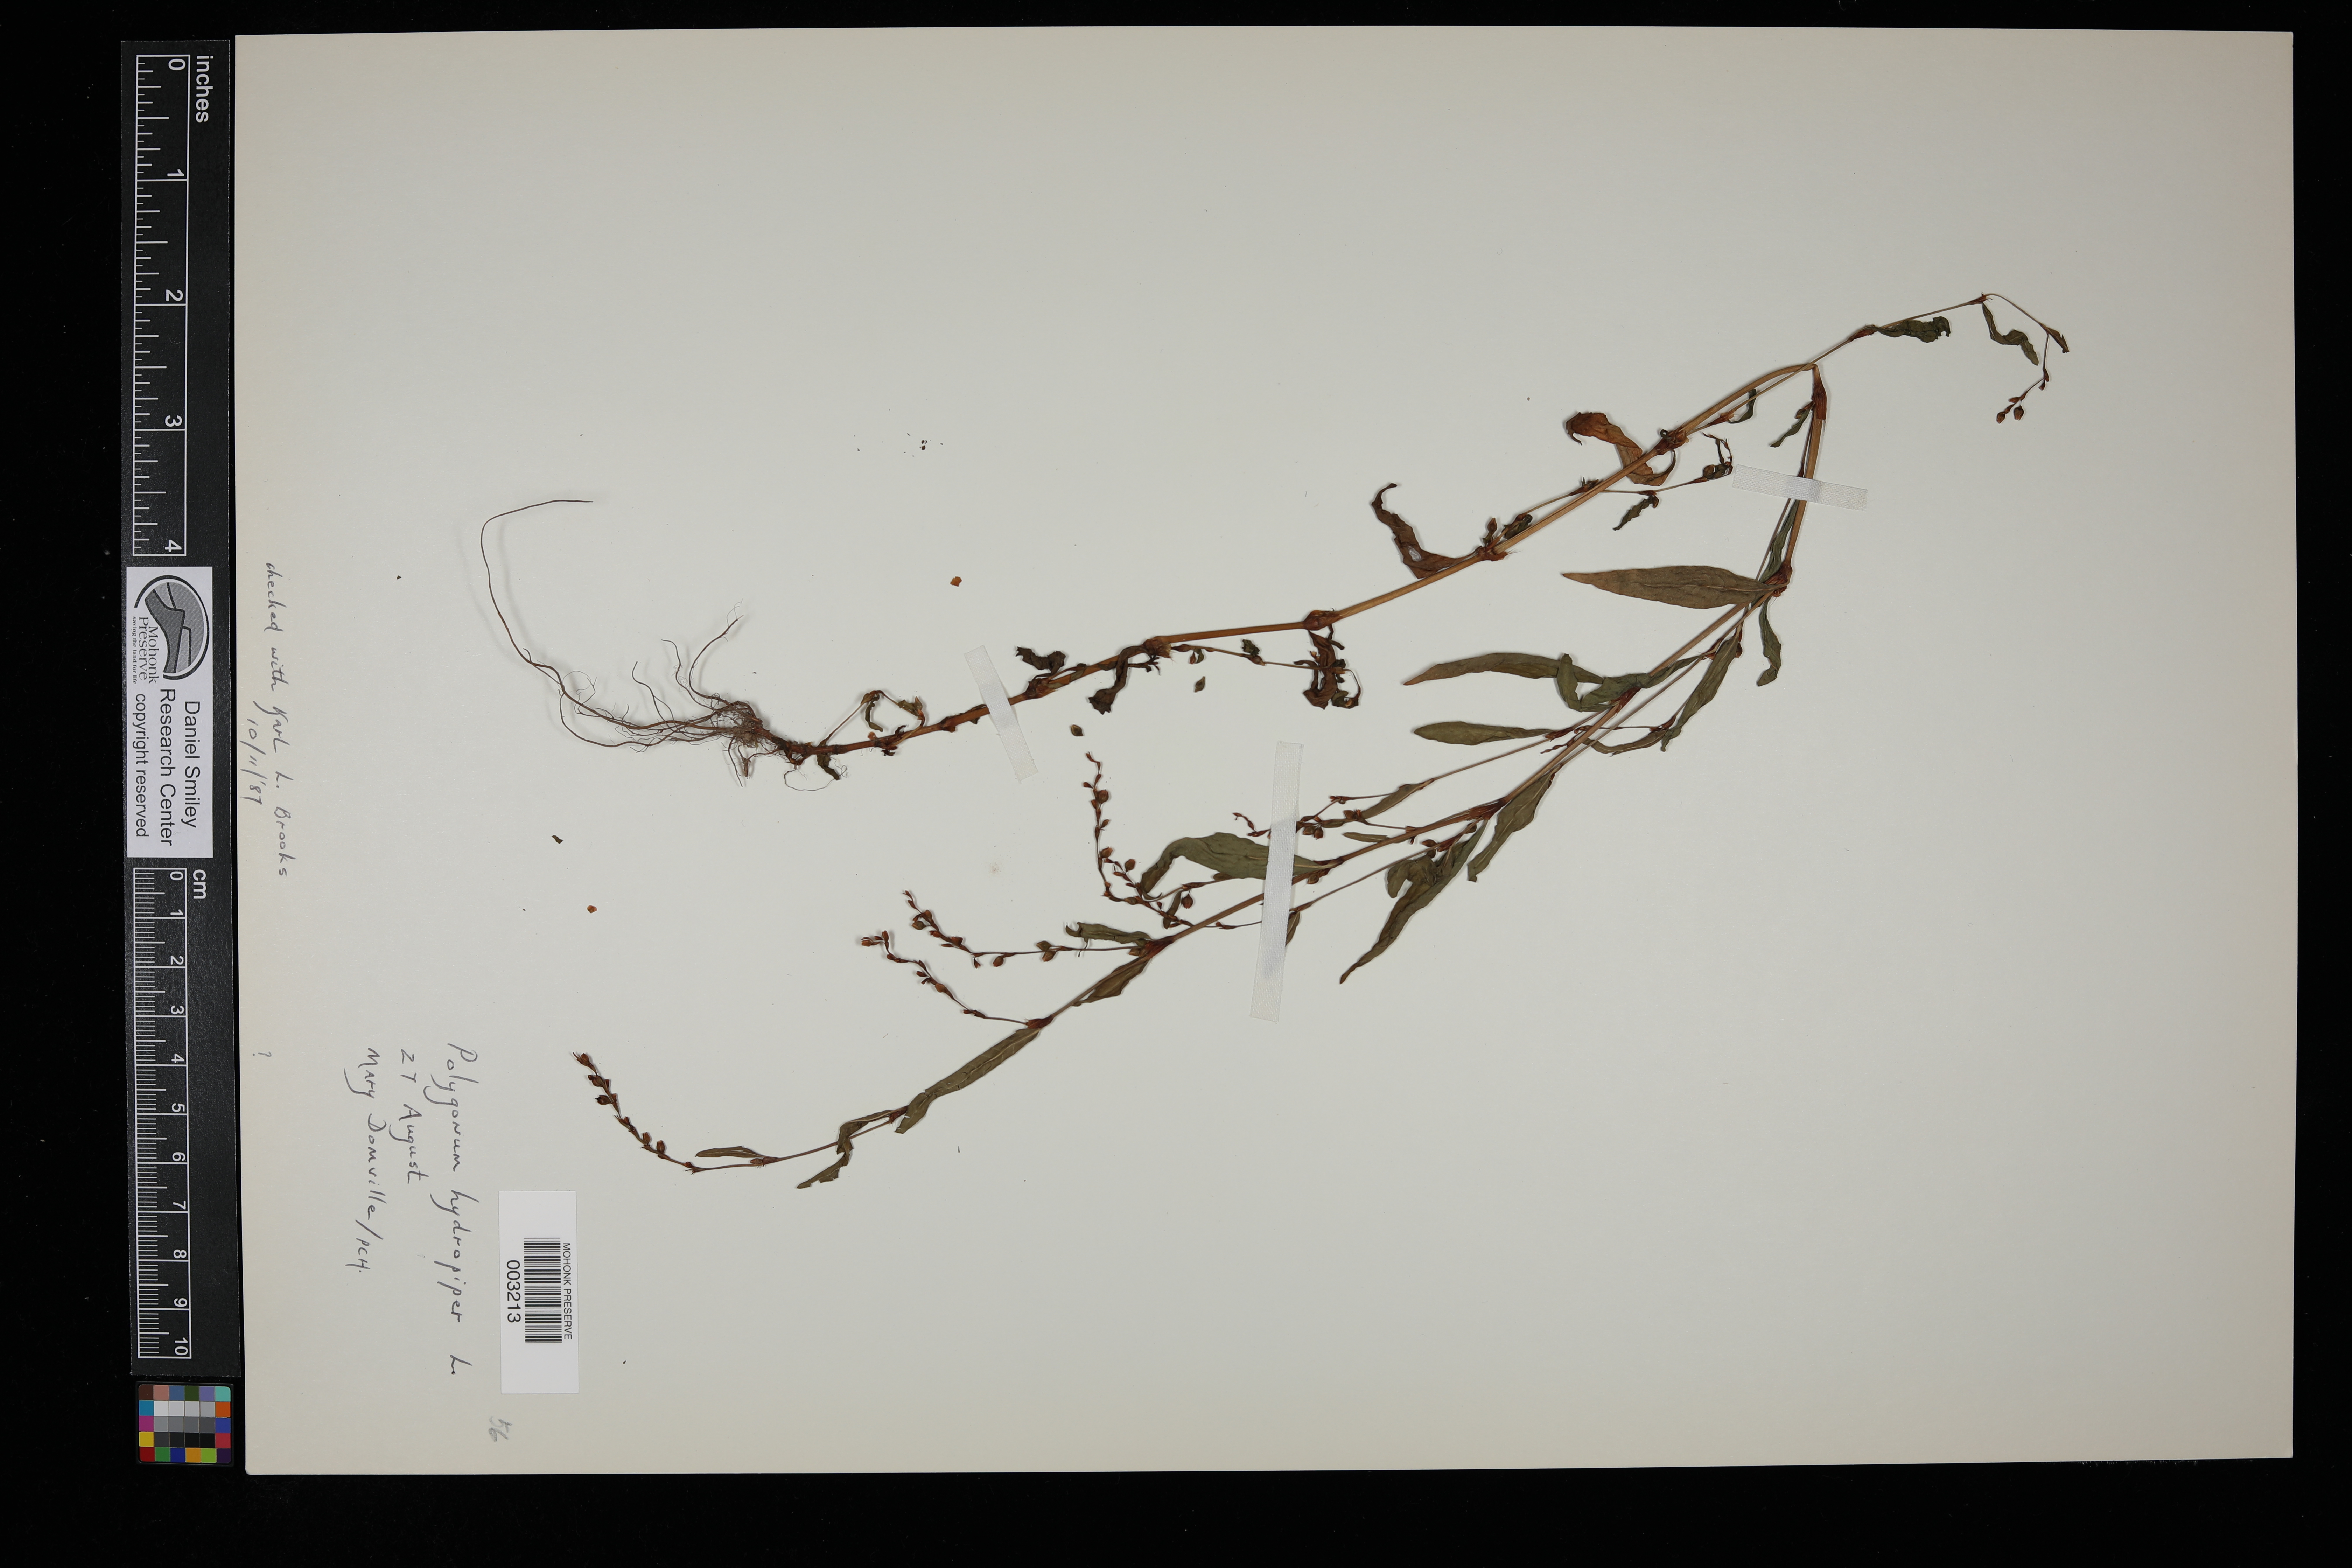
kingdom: Plantae
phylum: Tracheophyta
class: Magnoliopsida
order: Caryophyllales
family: Polygonaceae
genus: Persicaria
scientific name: Persicaria hydropiper
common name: Water-pepper
